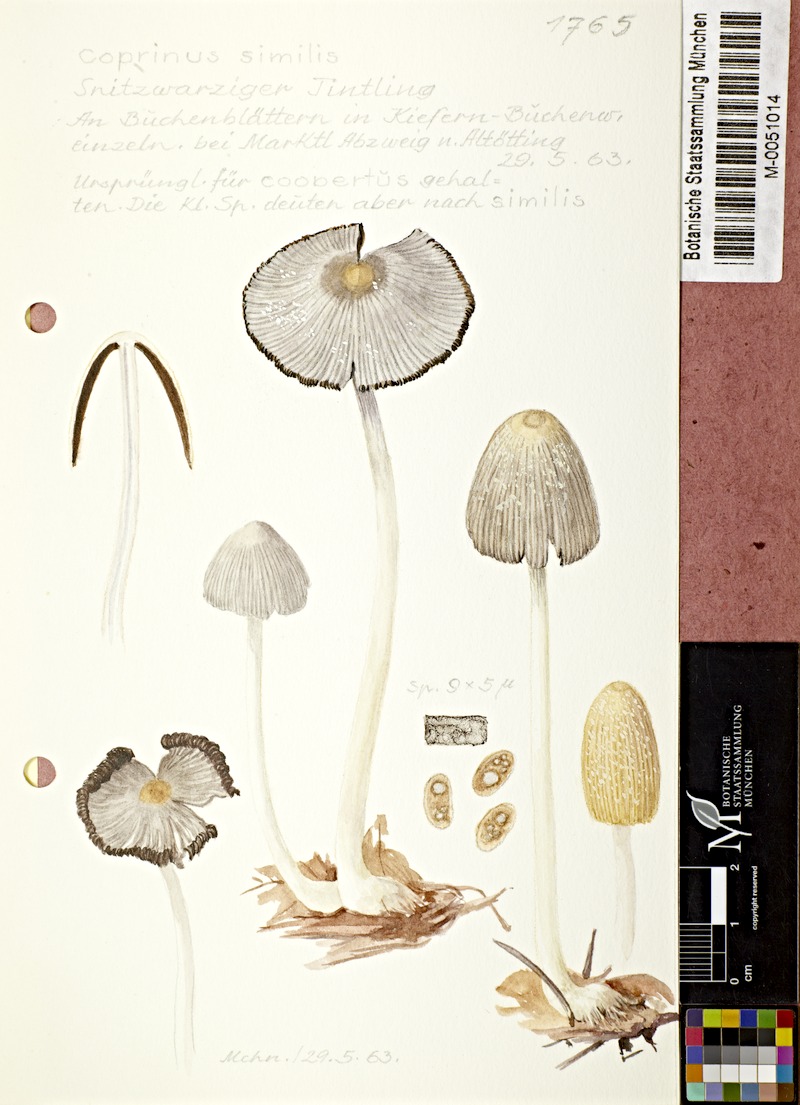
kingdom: Fungi
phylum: Basidiomycota
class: Agaricomycetes
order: Agaricales
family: Psathyrellaceae
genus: Coprinellus
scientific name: Coprinellus radians
